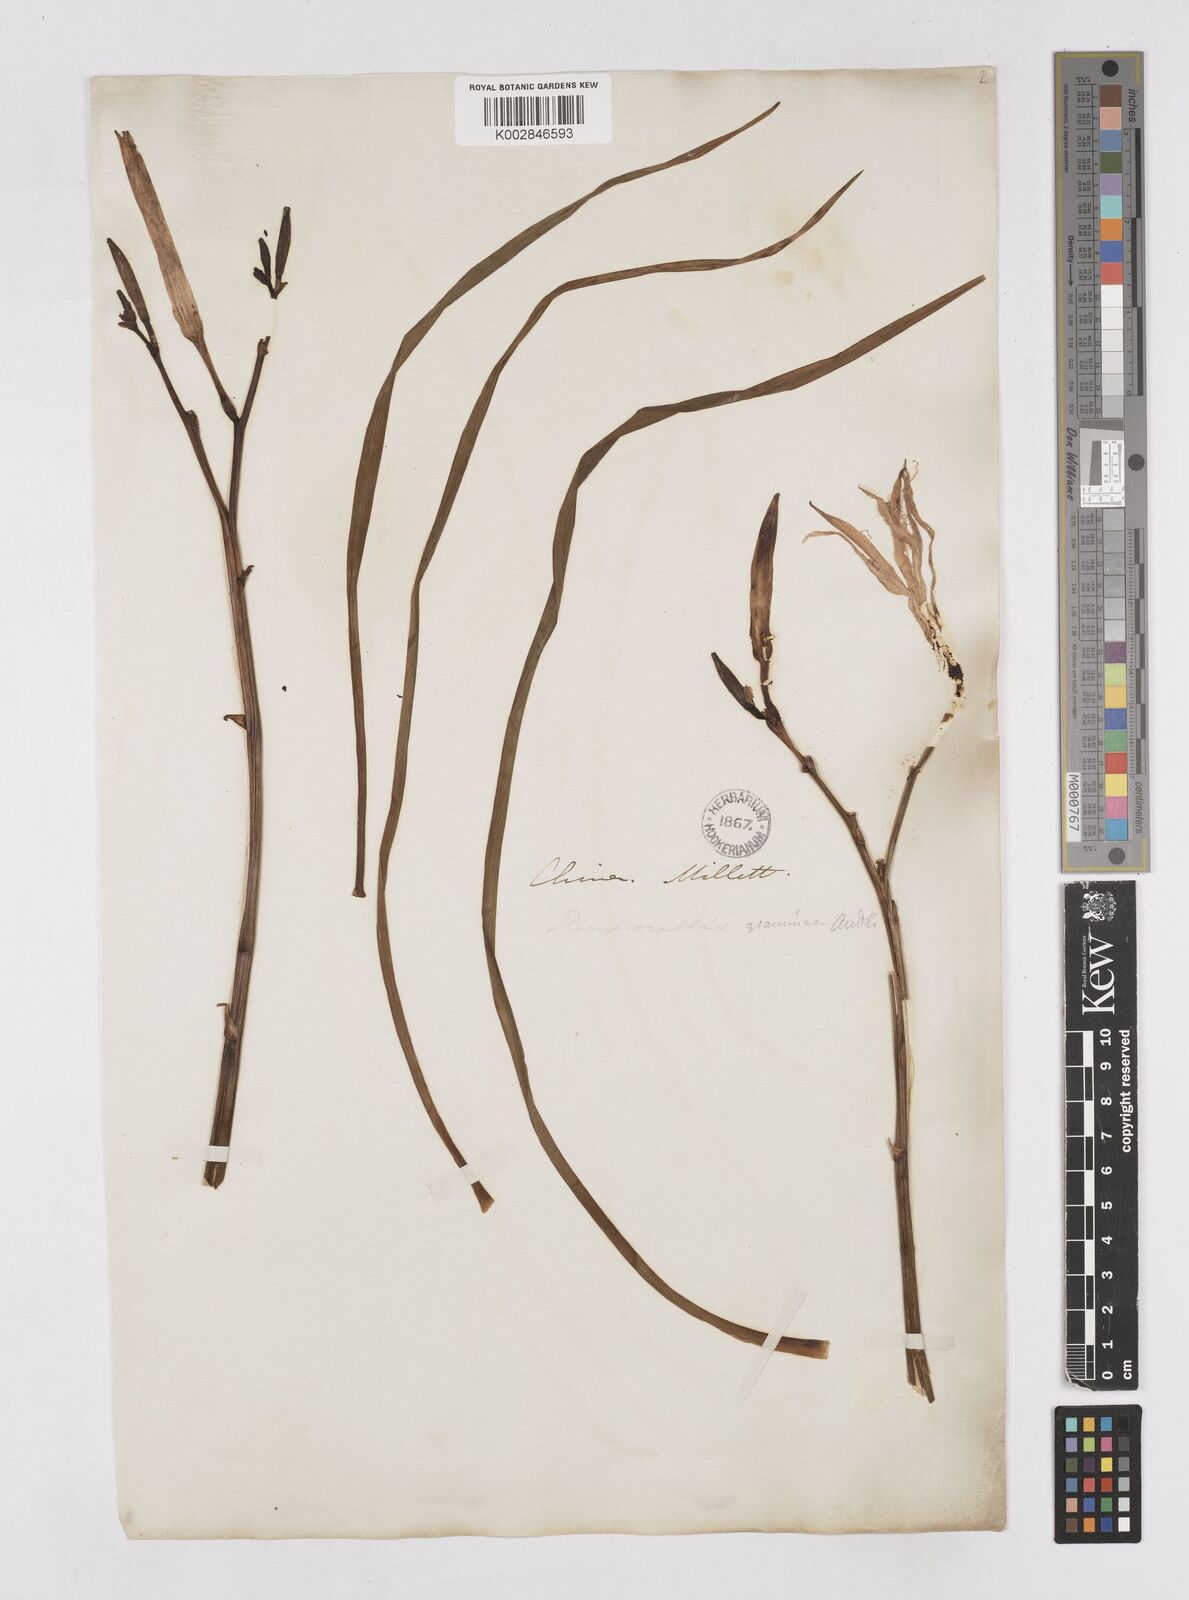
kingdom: Plantae
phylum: Tracheophyta
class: Liliopsida
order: Asparagales
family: Asphodelaceae
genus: Hemerocallis
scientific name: Hemerocallis minor
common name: Small daylily
